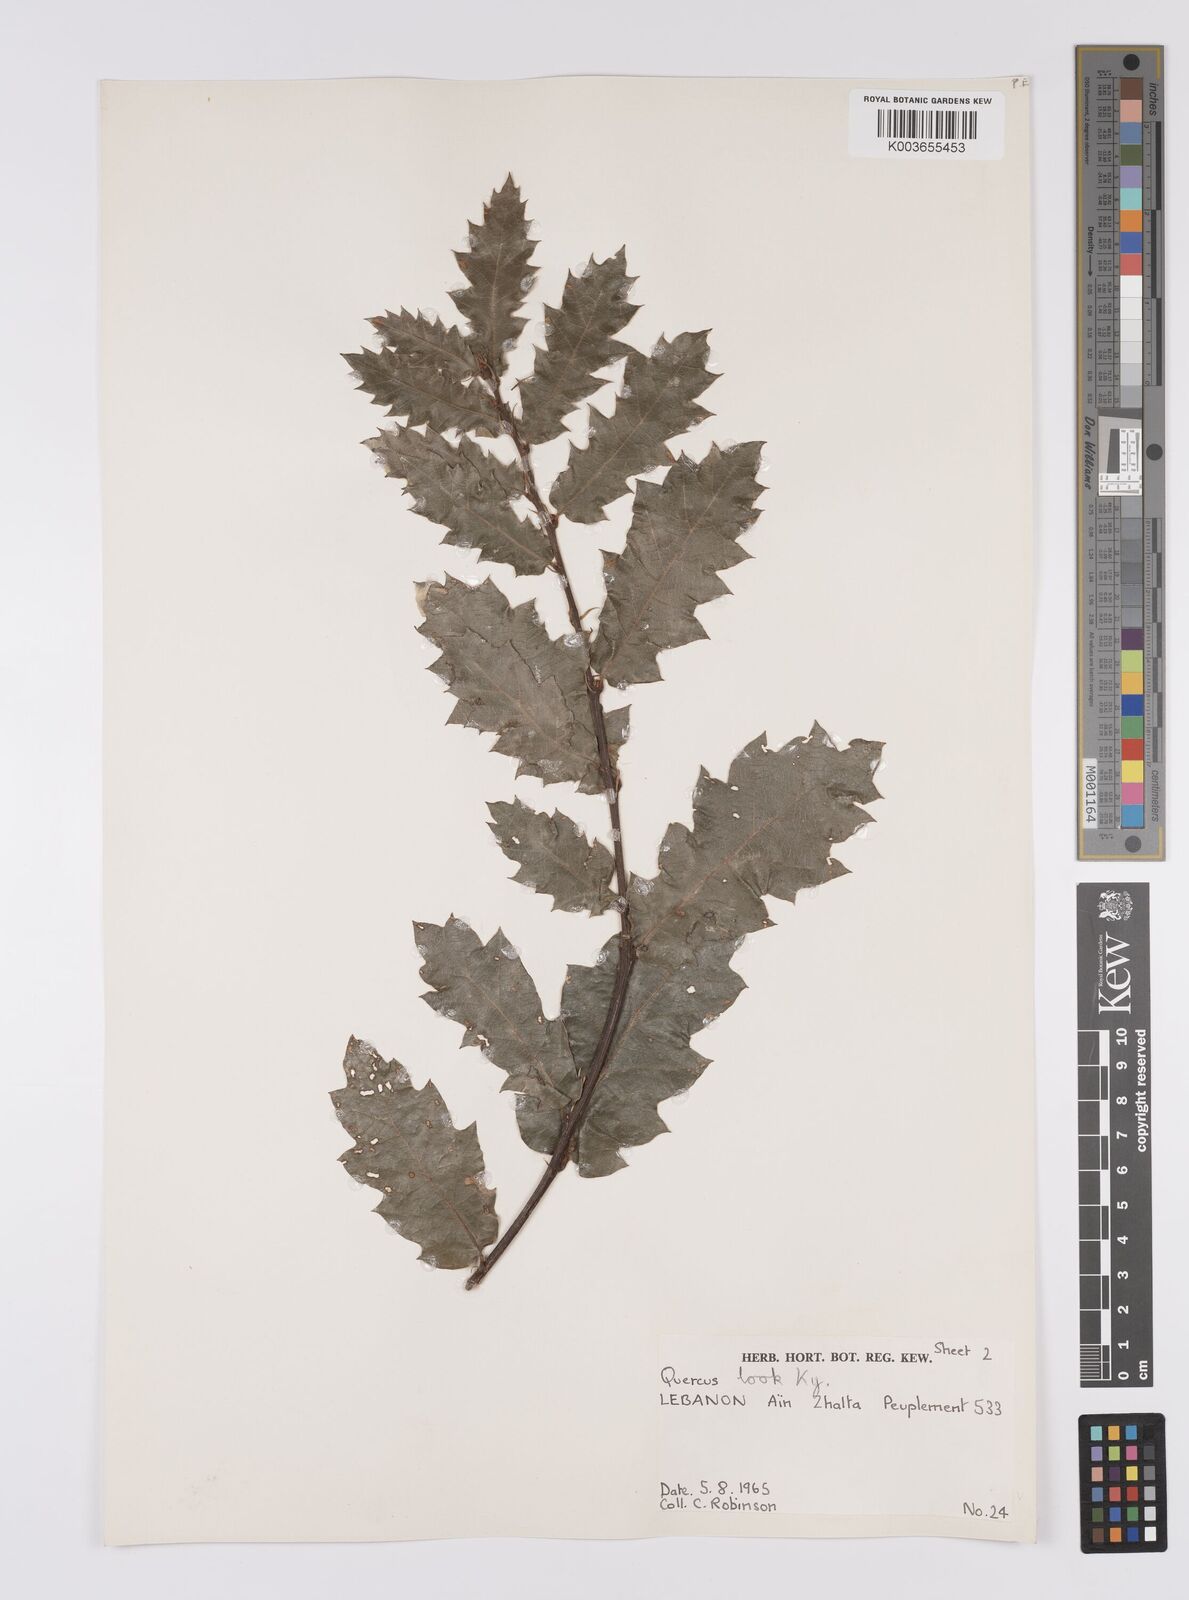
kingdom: Plantae
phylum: Tracheophyta
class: Magnoliopsida
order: Fagales
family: Fagaceae
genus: Quercus
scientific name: Quercus look
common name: Look oak
